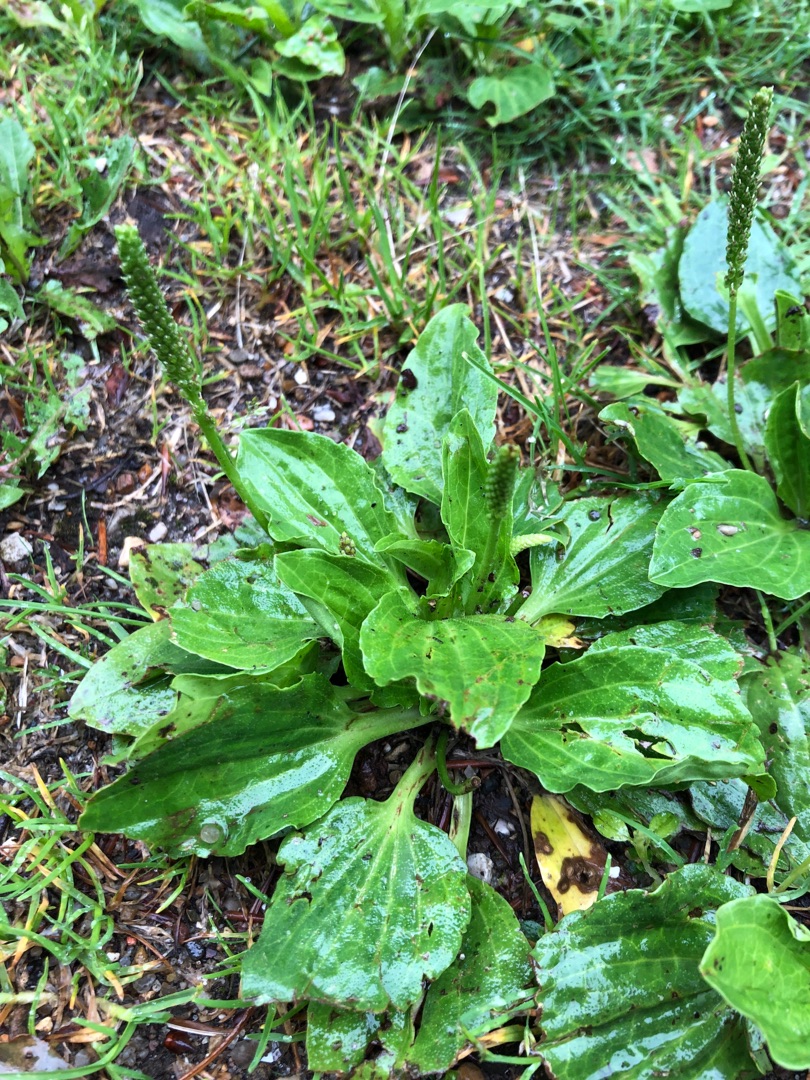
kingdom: Plantae
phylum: Tracheophyta
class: Magnoliopsida
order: Lamiales
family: Plantaginaceae
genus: Plantago
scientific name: Plantago major
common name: Glat vejbred
